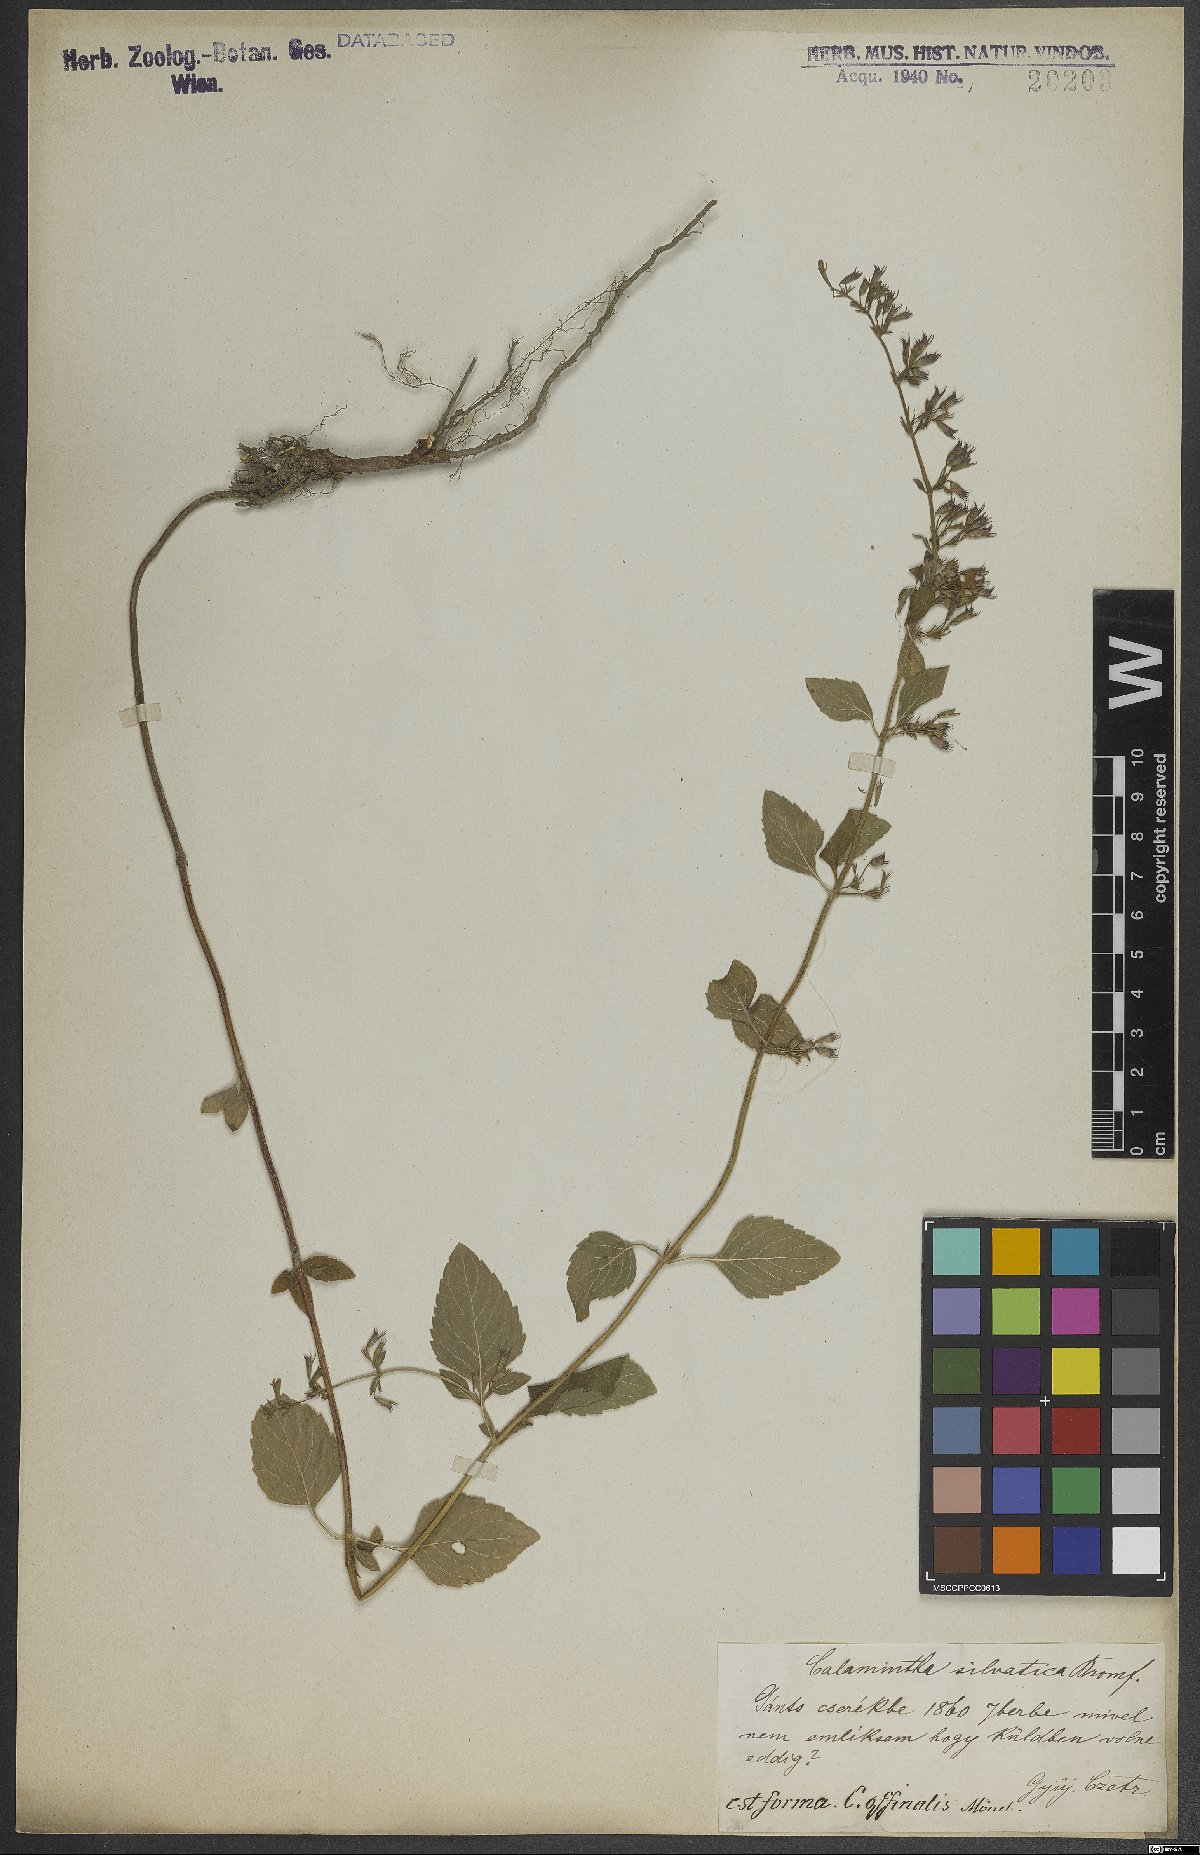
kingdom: Plantae
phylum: Tracheophyta
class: Magnoliopsida
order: Lamiales
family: Lamiaceae
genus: Clinopodium
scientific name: Clinopodium menthifolium
